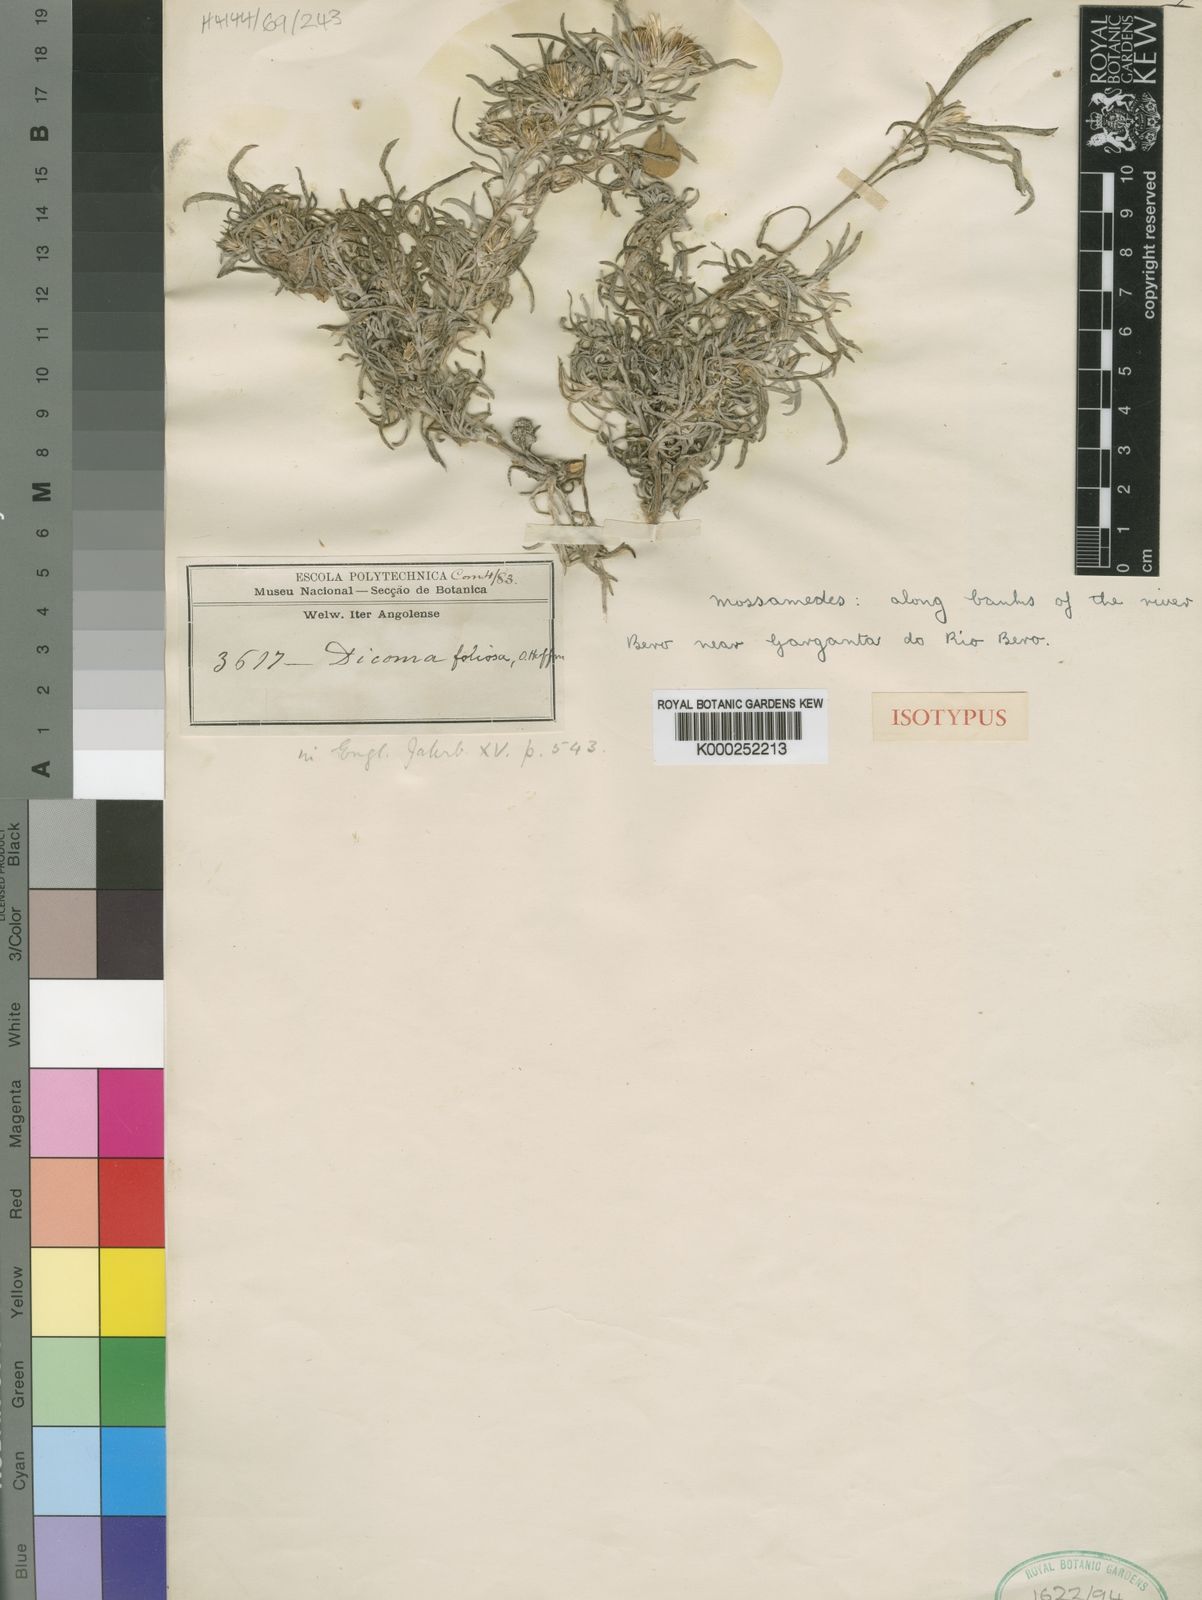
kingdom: Plantae
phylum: Tracheophyta
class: Magnoliopsida
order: Asterales
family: Asteraceae
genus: Dicoma
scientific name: Dicoma foliosa
